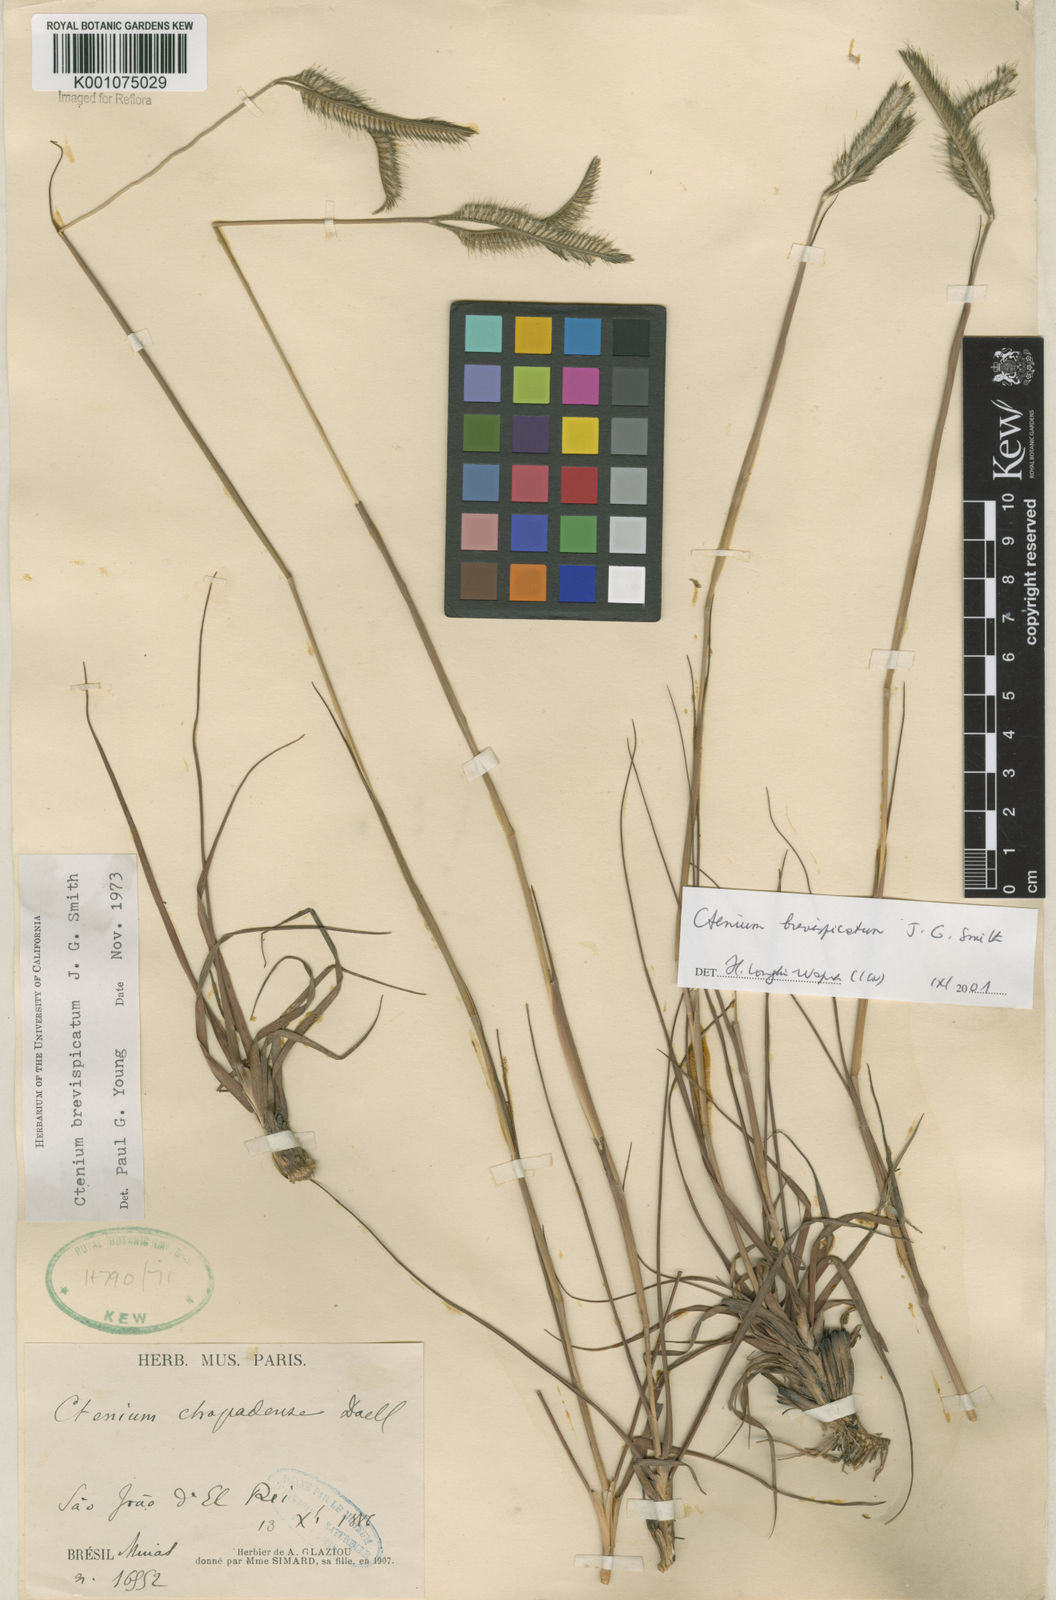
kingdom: Plantae
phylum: Tracheophyta
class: Liliopsida
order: Poales
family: Poaceae
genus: Ctenium
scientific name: Ctenium brevispicatum
